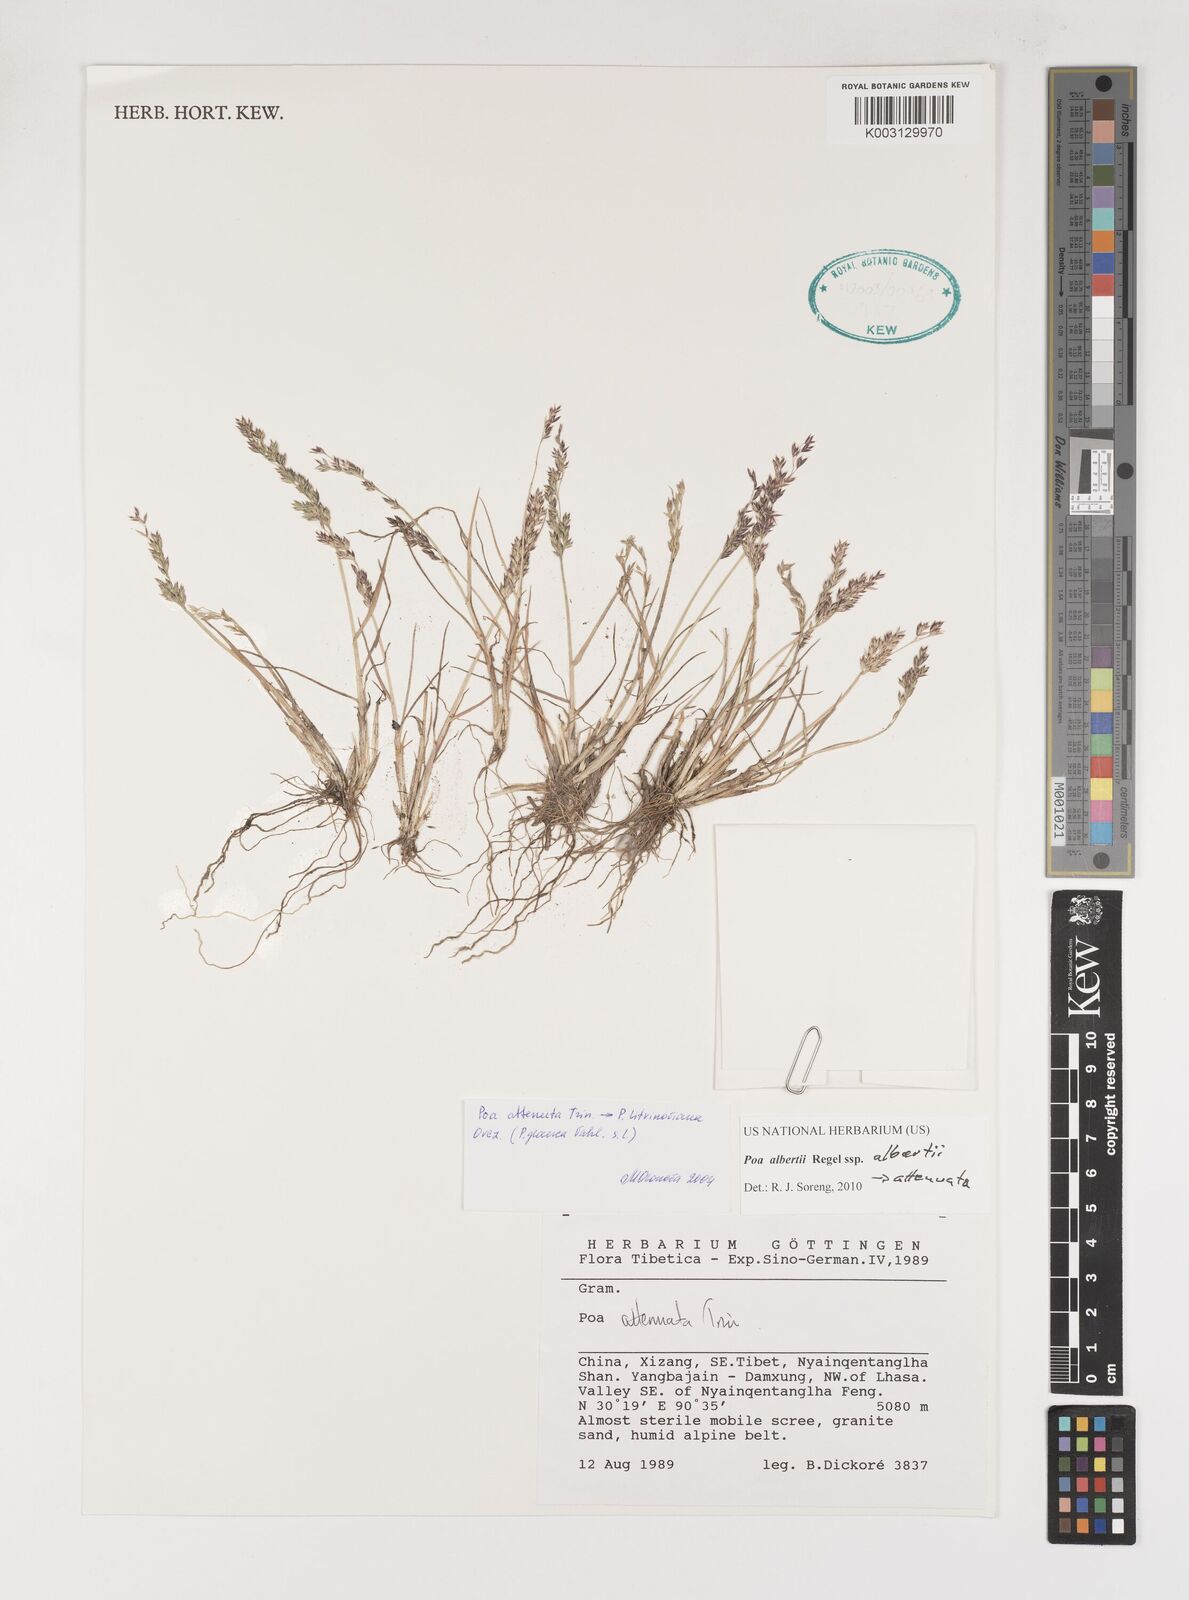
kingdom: Plantae
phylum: Tracheophyta
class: Liliopsida
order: Poales
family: Poaceae
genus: Poa
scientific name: Poa attenuata
